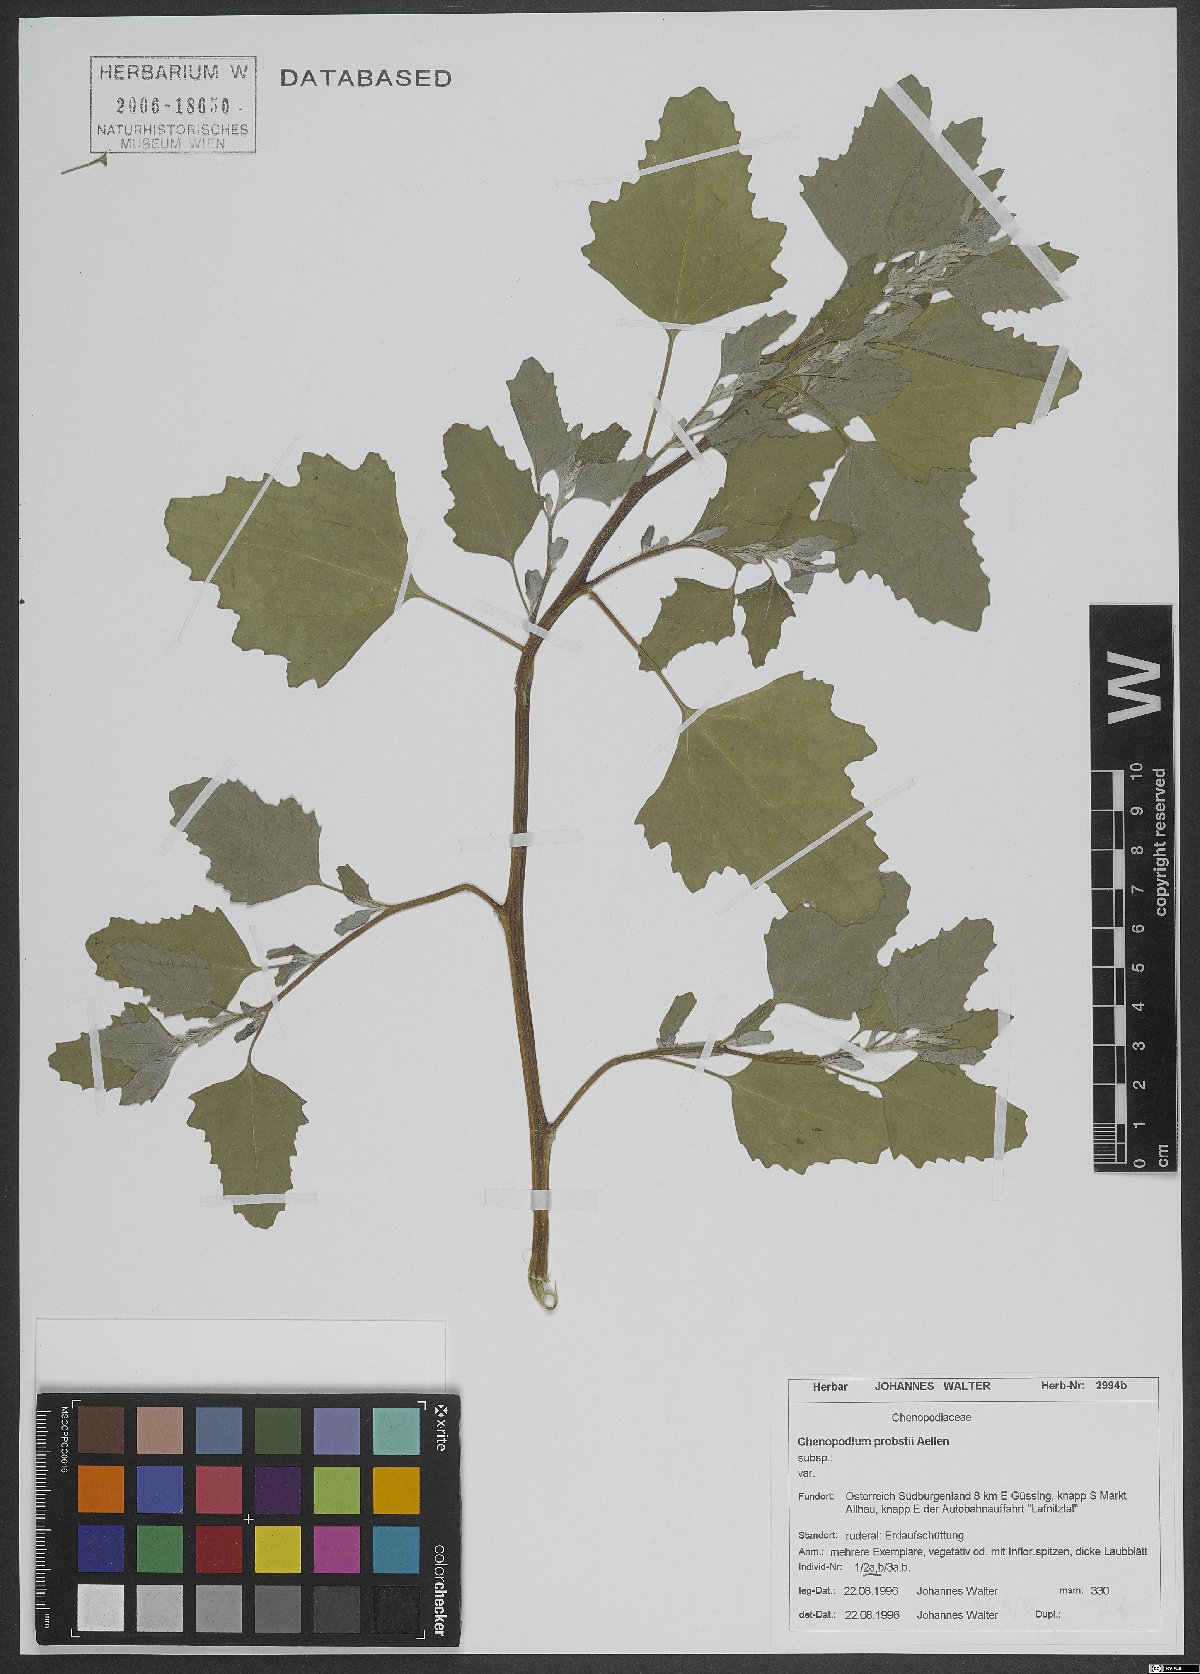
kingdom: Plantae
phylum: Tracheophyta
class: Magnoliopsida
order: Caryophyllales
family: Amaranthaceae
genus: Chenopodium
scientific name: Chenopodium probstii
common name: Probst's goosefoot
